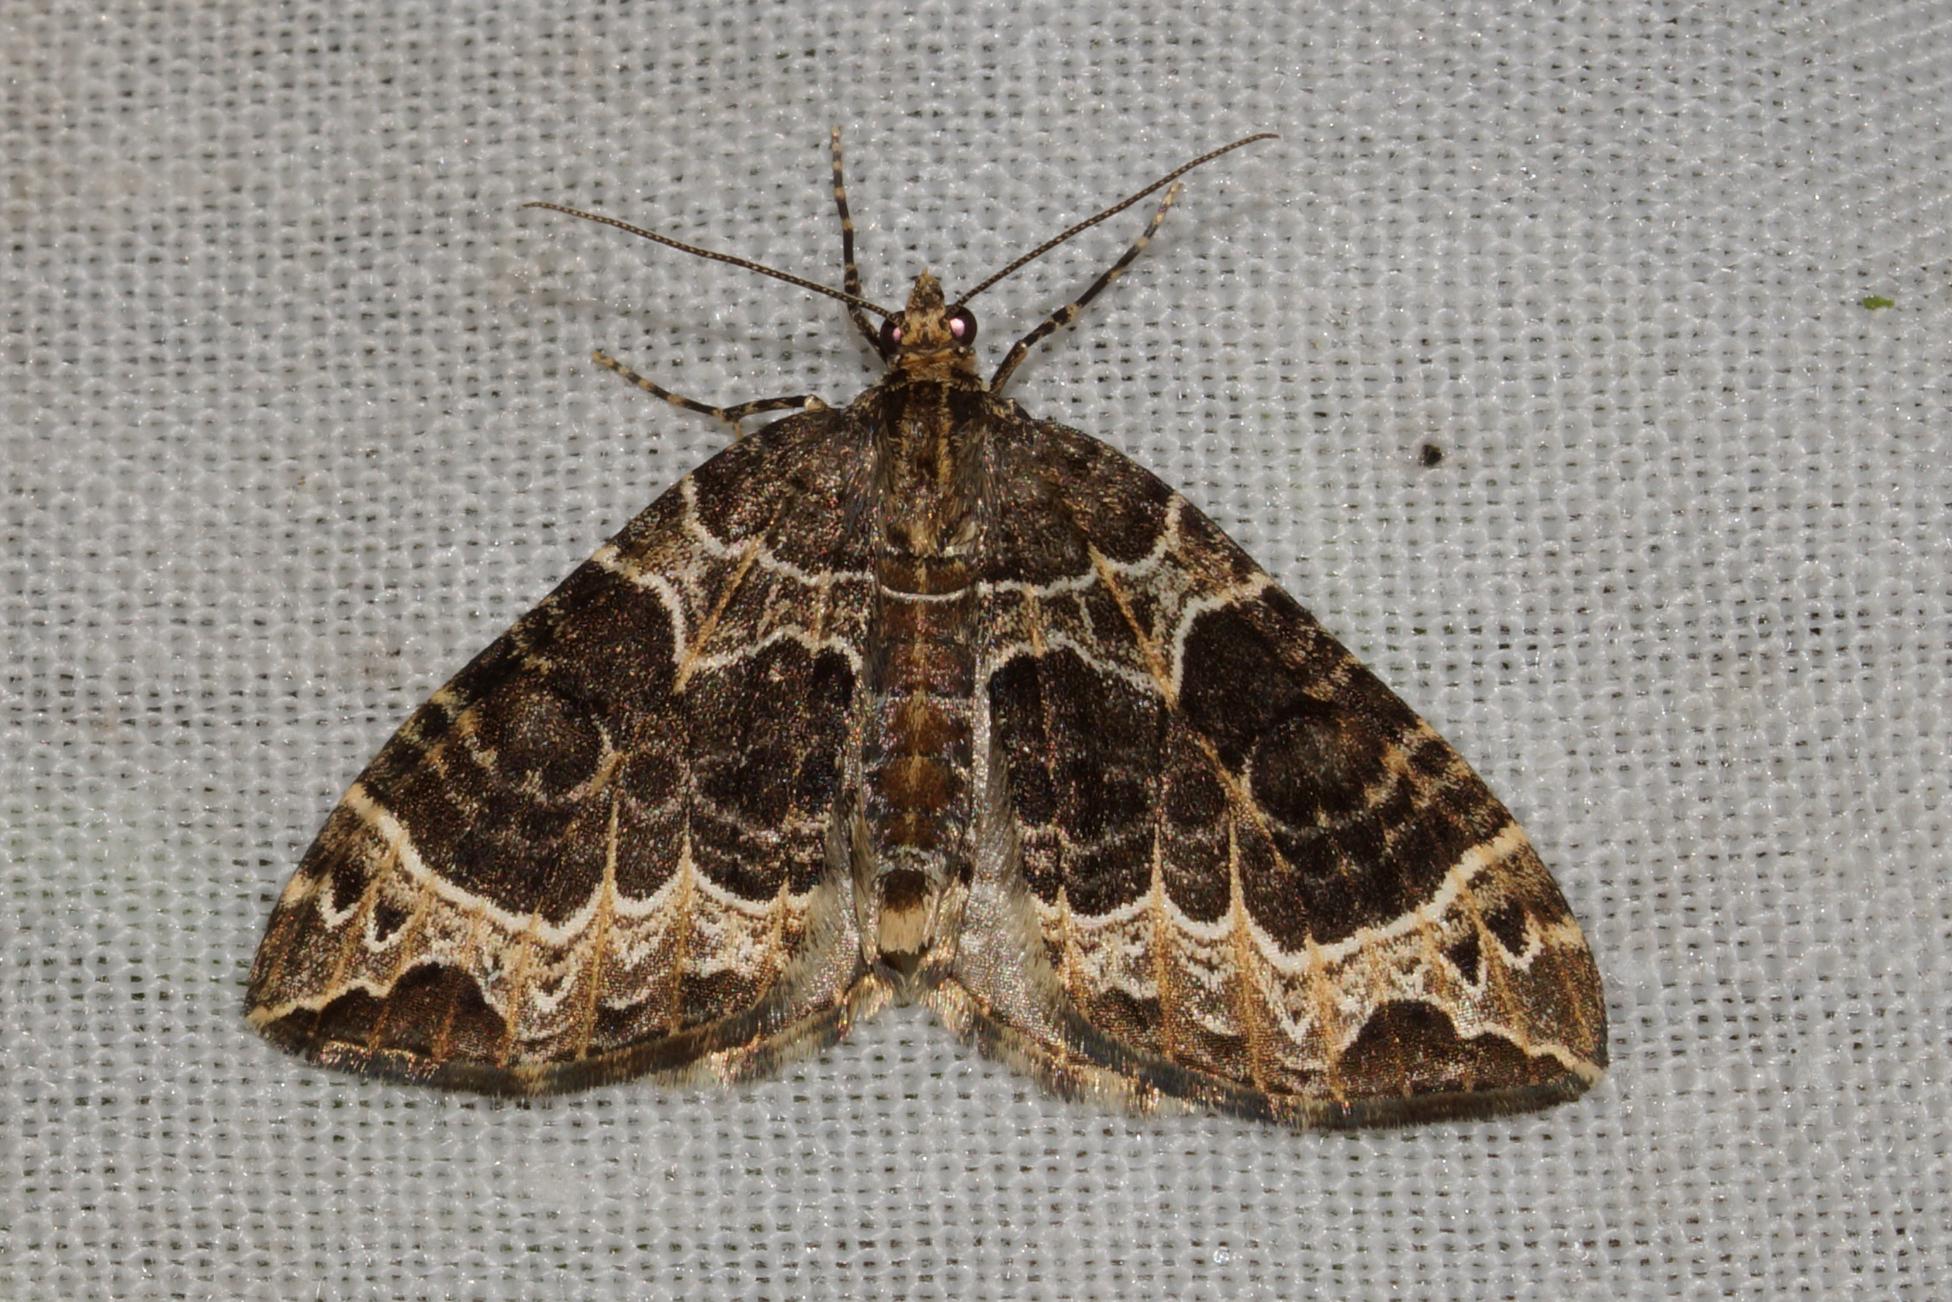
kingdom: Animalia
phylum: Arthropoda
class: Insecta
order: Lepidoptera
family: Geometridae
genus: Ecliptopera
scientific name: Ecliptopera silaceata
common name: Dueurt-bladmåler
